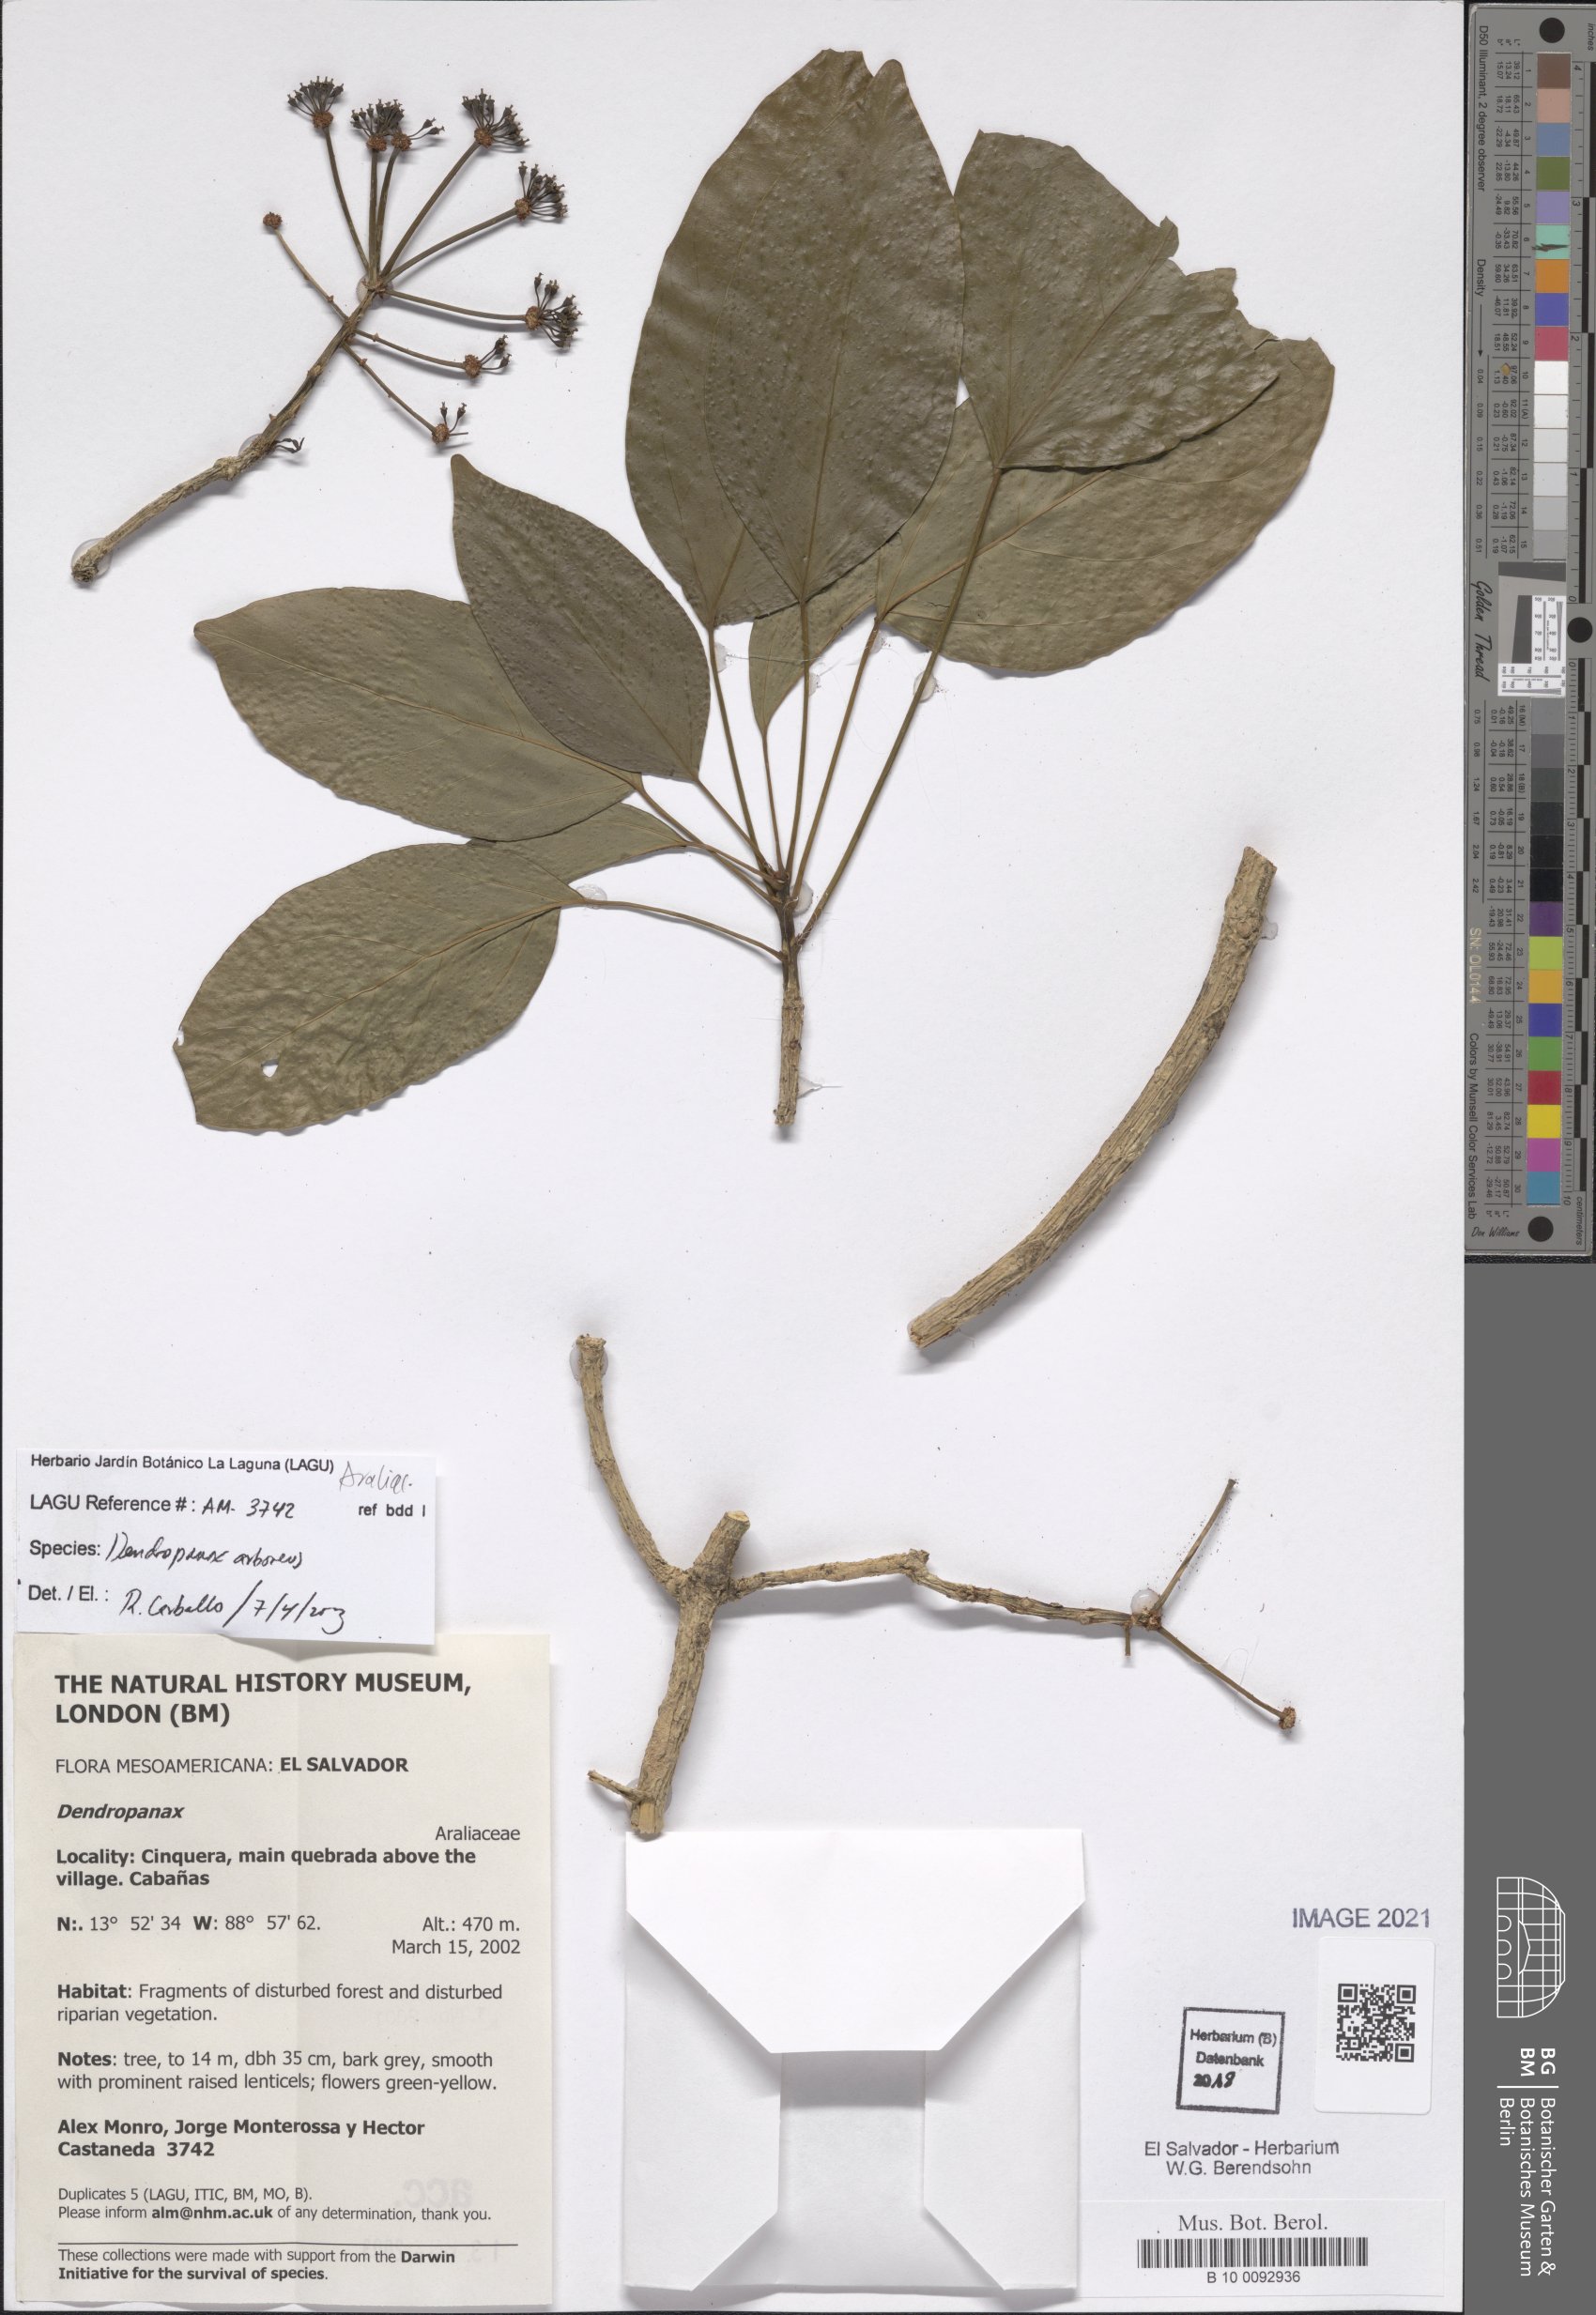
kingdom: Plantae
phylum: Tracheophyta
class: Magnoliopsida
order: Apiales
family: Araliaceae
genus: Dendropanax
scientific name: Dendropanax arboreus
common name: Potato-wood
